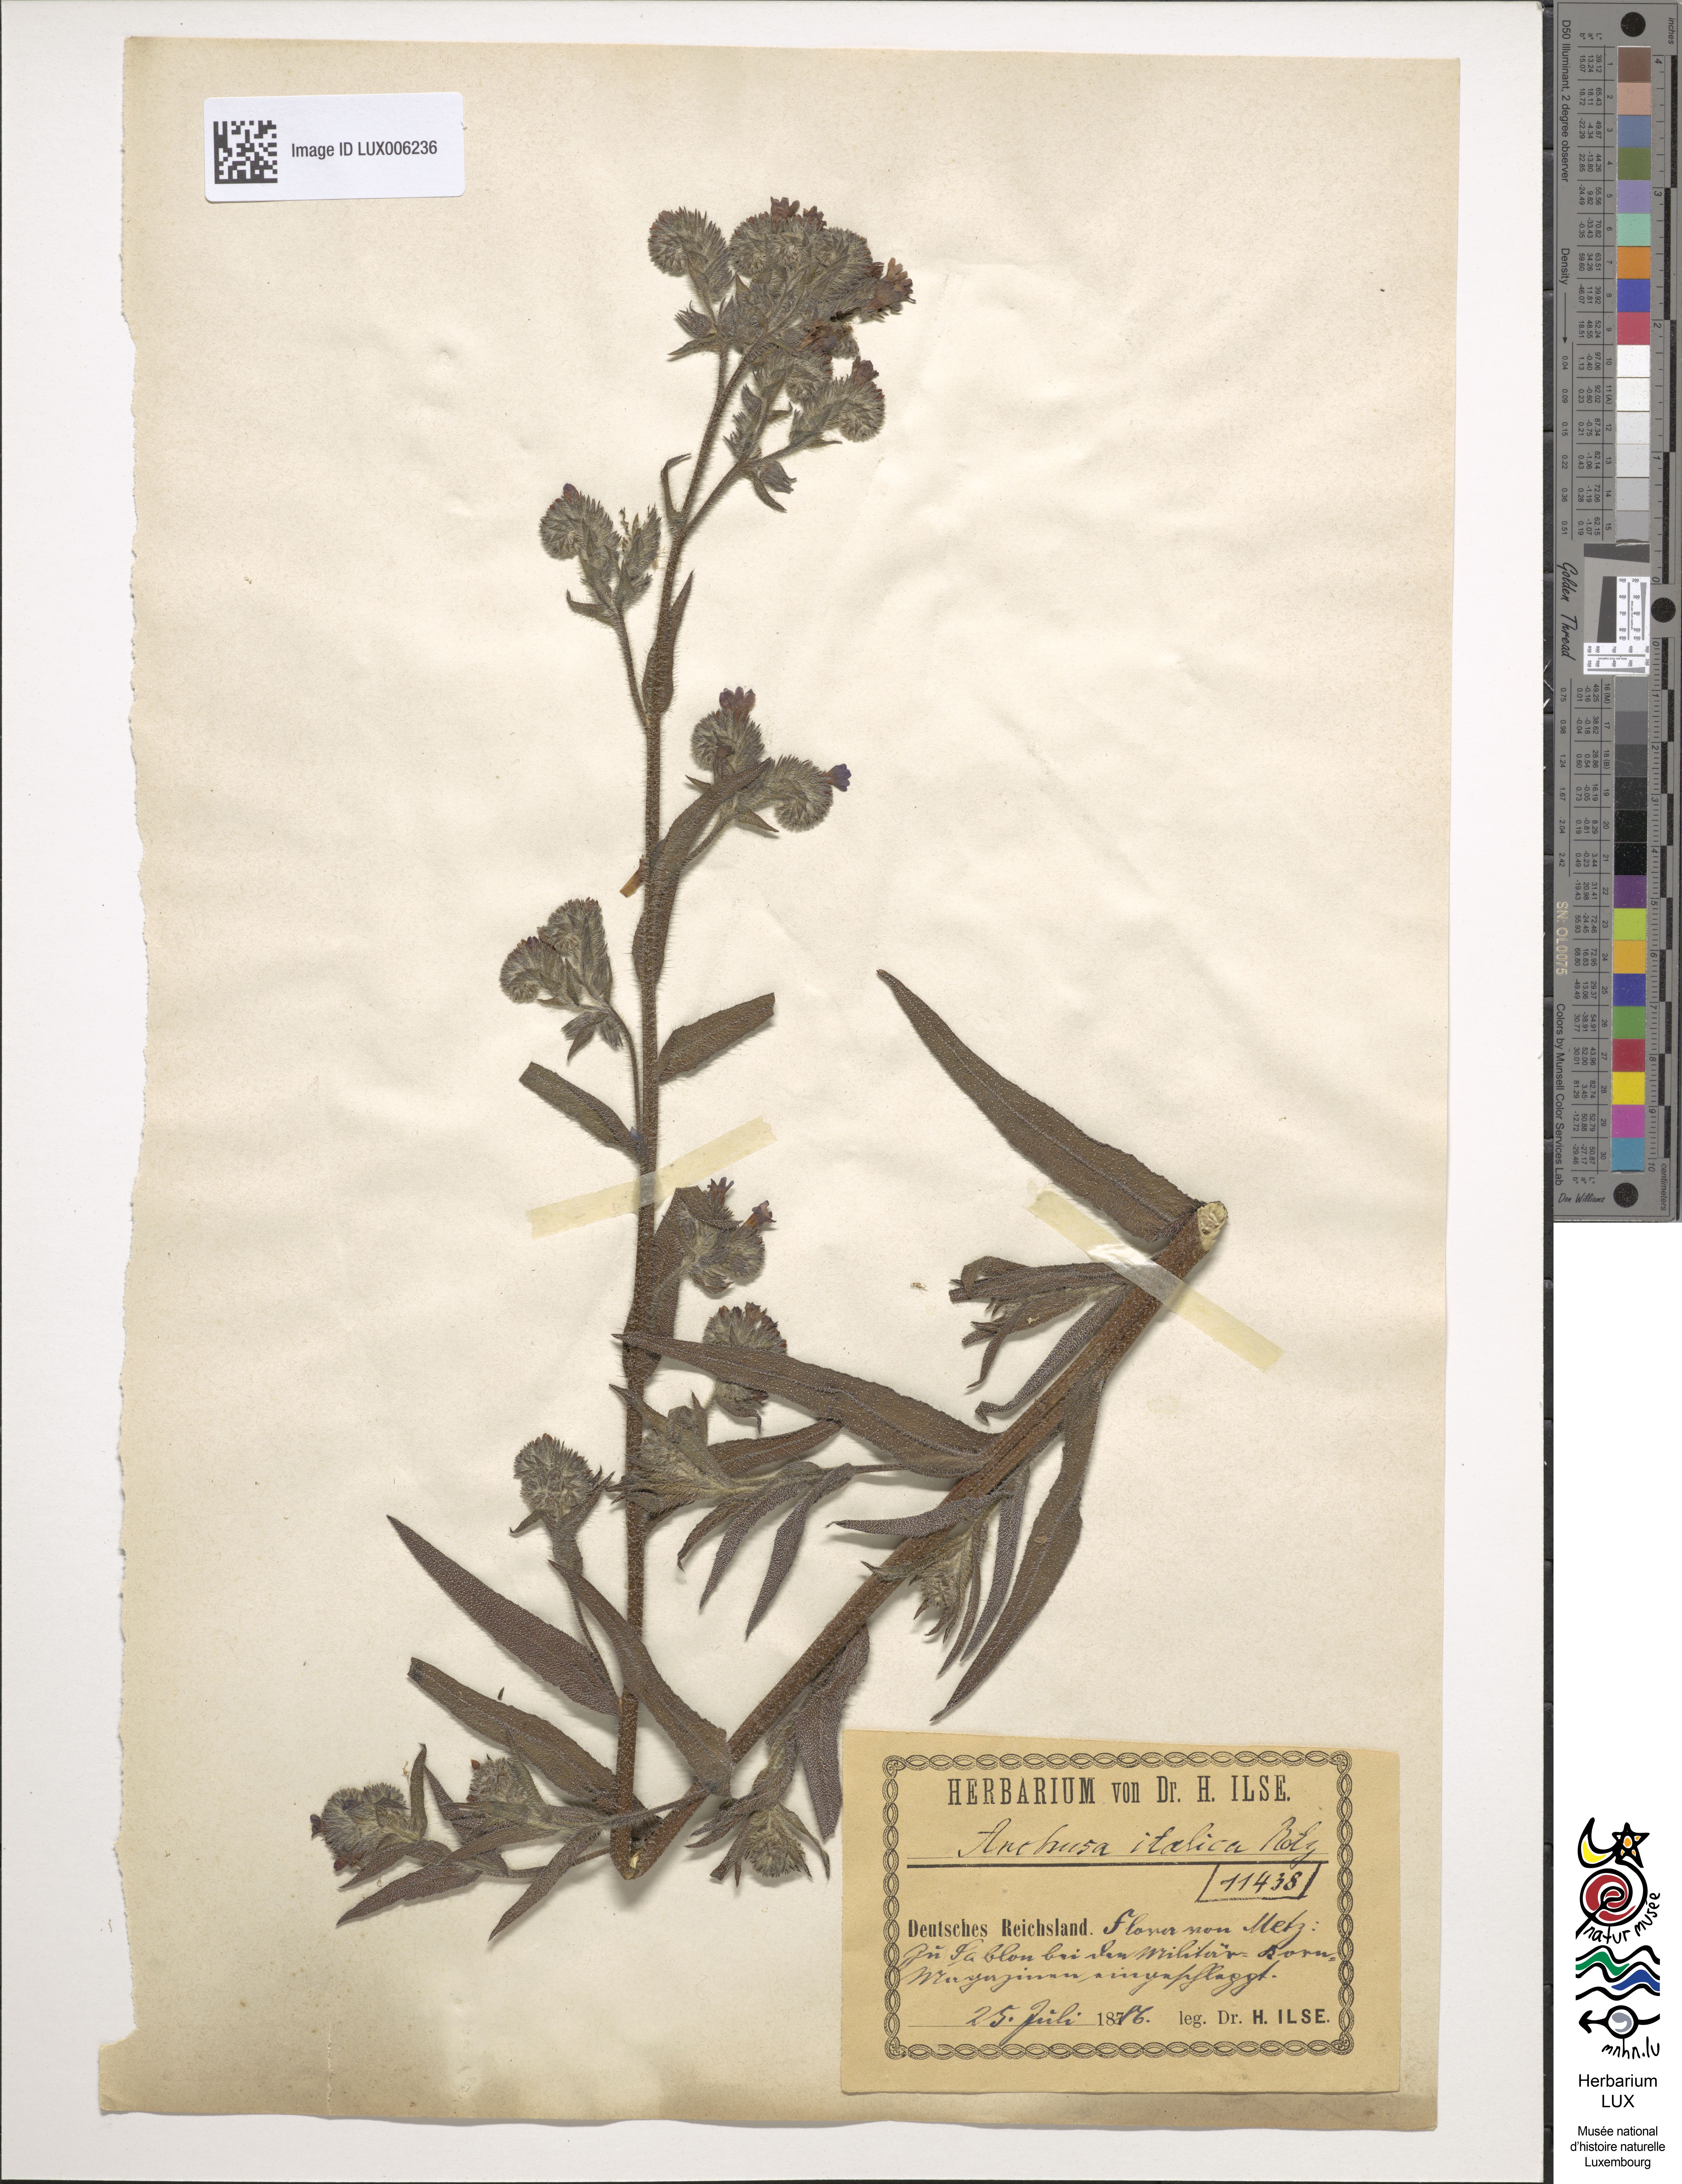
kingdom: Plantae
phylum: Tracheophyta
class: Magnoliopsida
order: Boraginales
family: Boraginaceae
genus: Anchusa
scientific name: Anchusa azurea
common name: Garden anchusa
